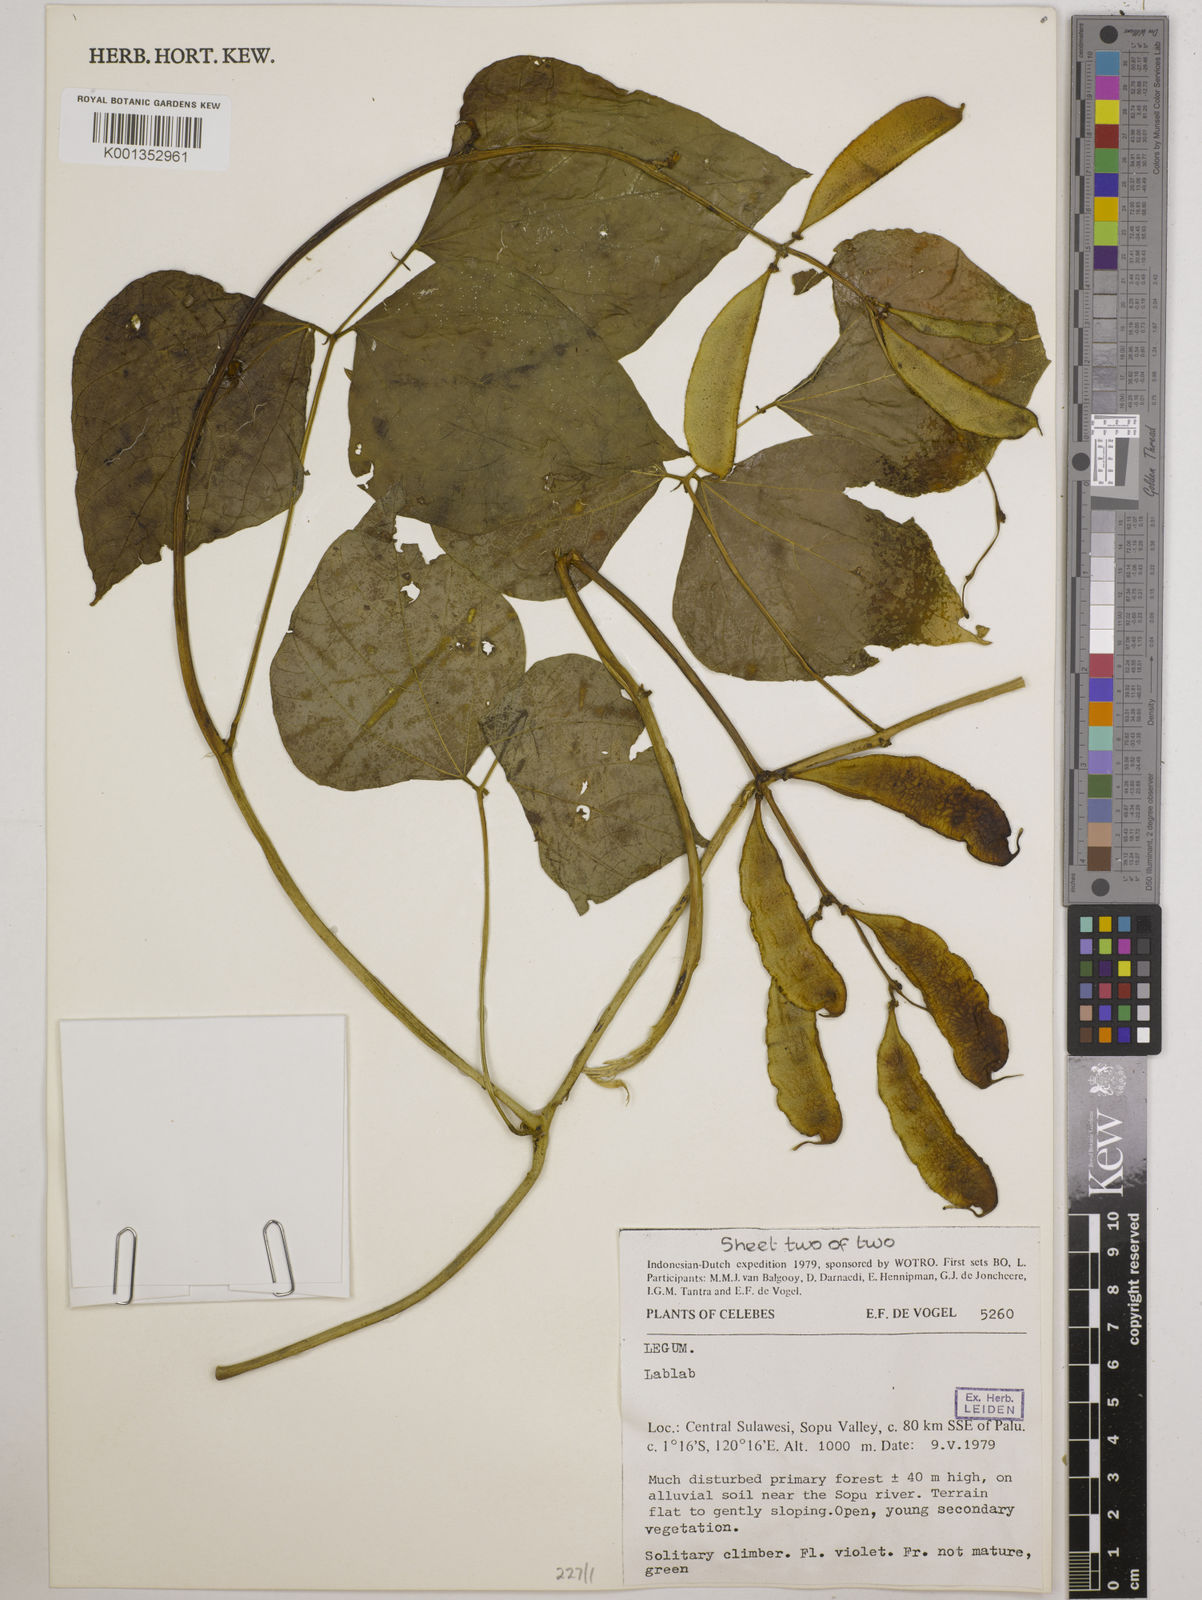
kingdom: Plantae
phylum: Tracheophyta
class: Magnoliopsida
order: Fabales
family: Fabaceae
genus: Lablab
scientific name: Lablab purpureus
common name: Lablab-bean
